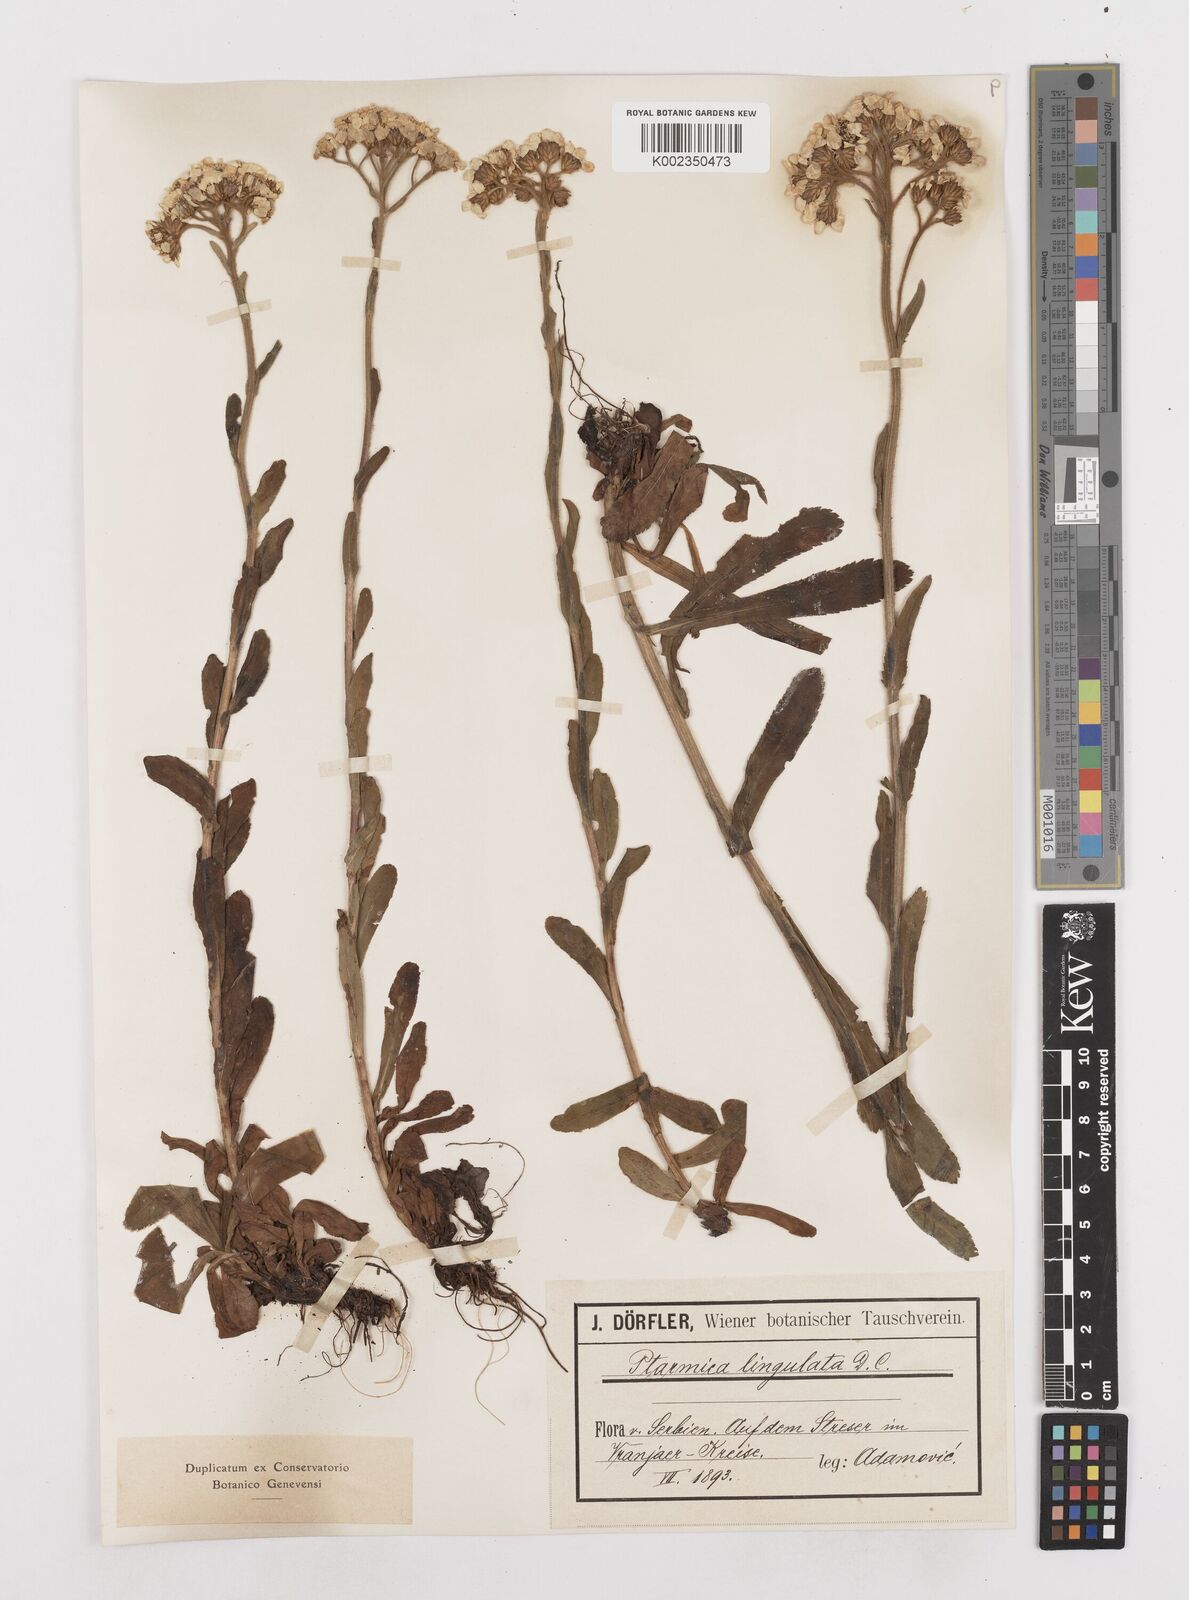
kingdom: Plantae
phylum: Tracheophyta
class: Magnoliopsida
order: Asterales
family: Asteraceae
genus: Achillea
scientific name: Achillea lingulata
